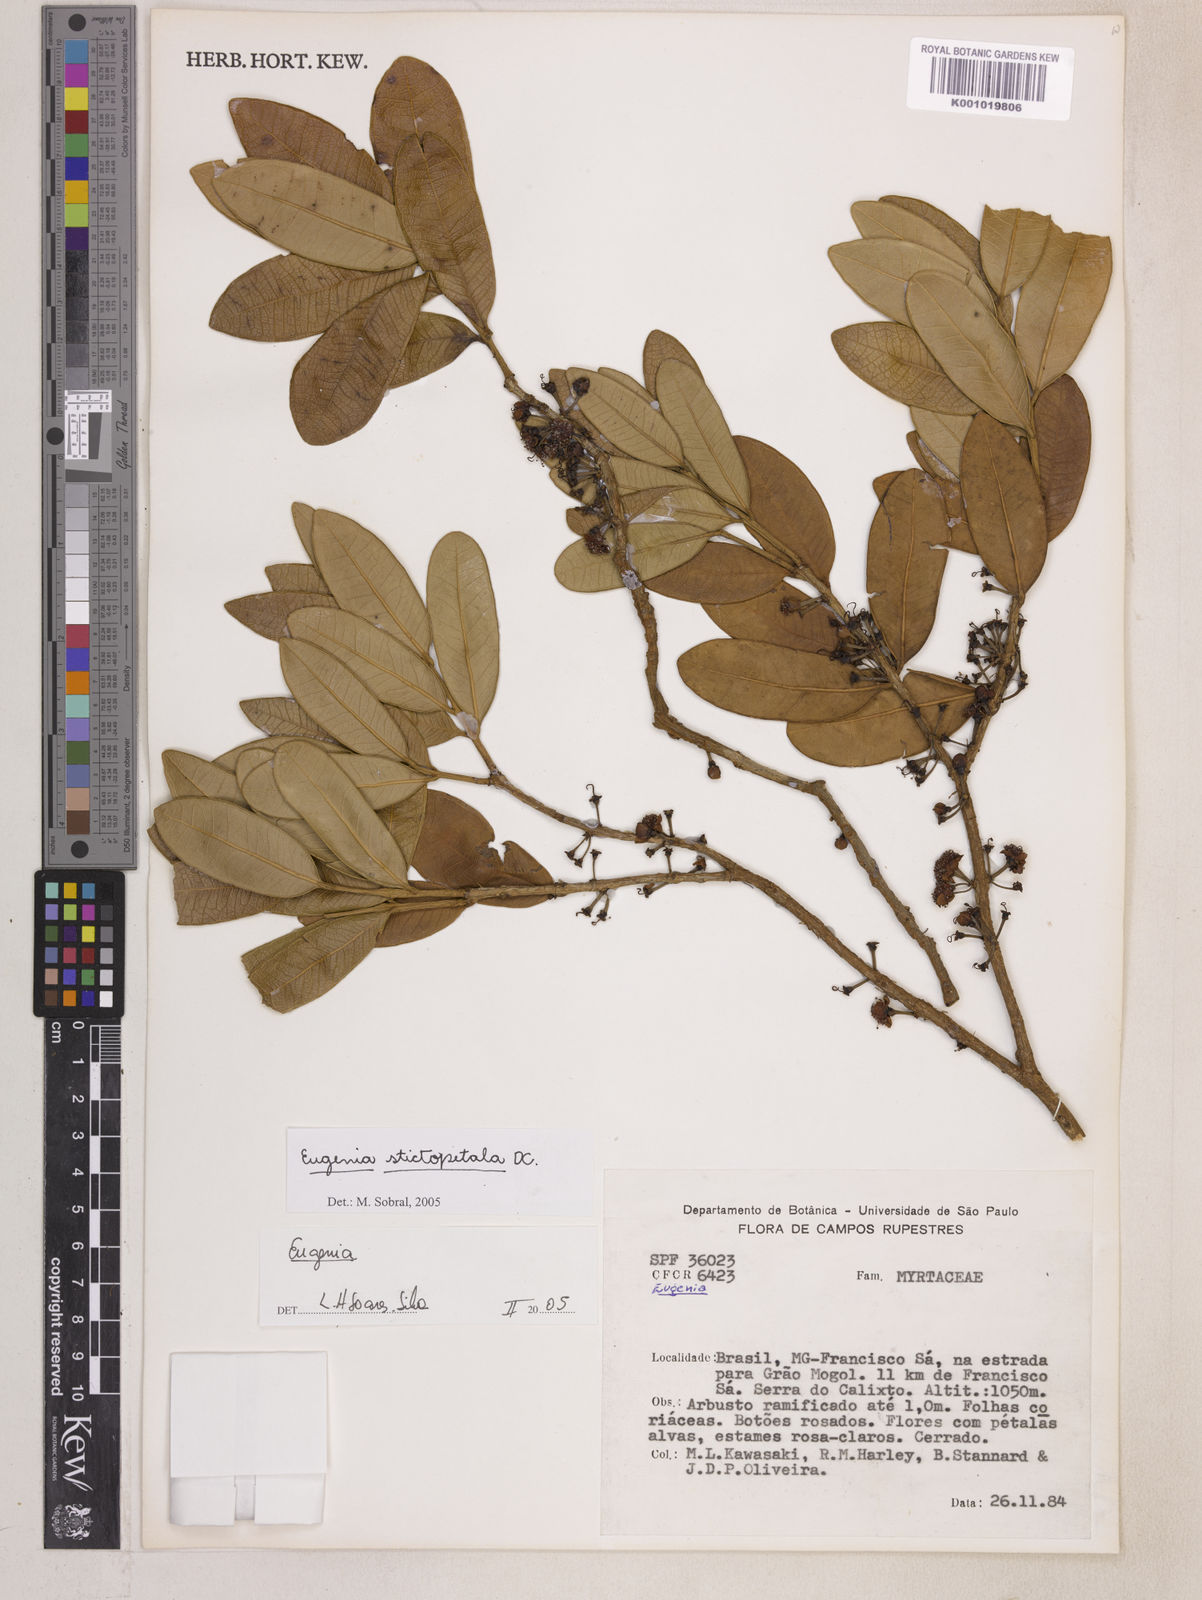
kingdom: Plantae
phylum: Tracheophyta
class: Magnoliopsida
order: Myrtales
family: Myrtaceae
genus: Eugenia
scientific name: Eugenia stictopetala
